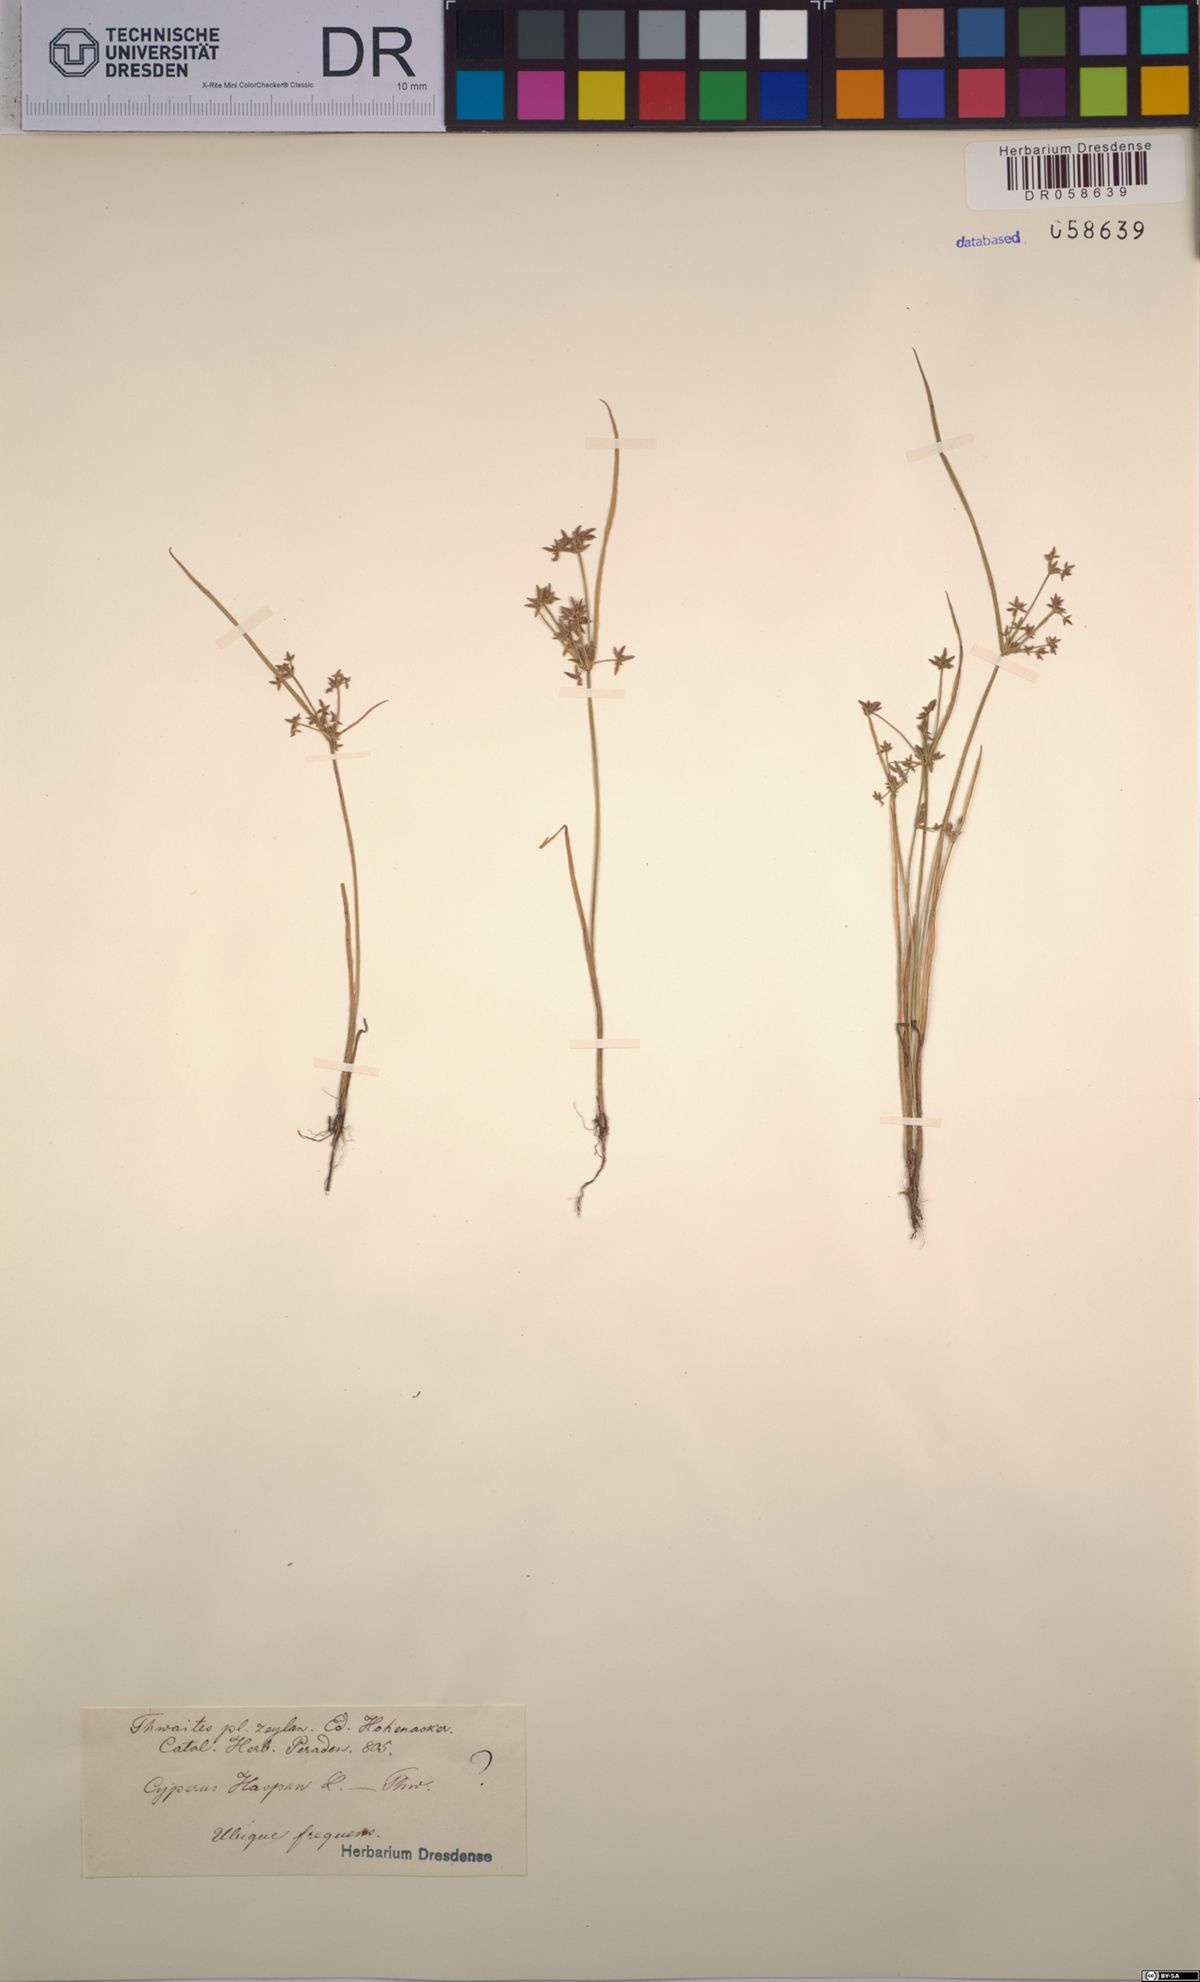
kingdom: Plantae
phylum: Tracheophyta
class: Liliopsida
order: Poales
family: Cyperaceae
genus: Cyperus
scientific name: Cyperus haspan
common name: Haspan flatsedge
